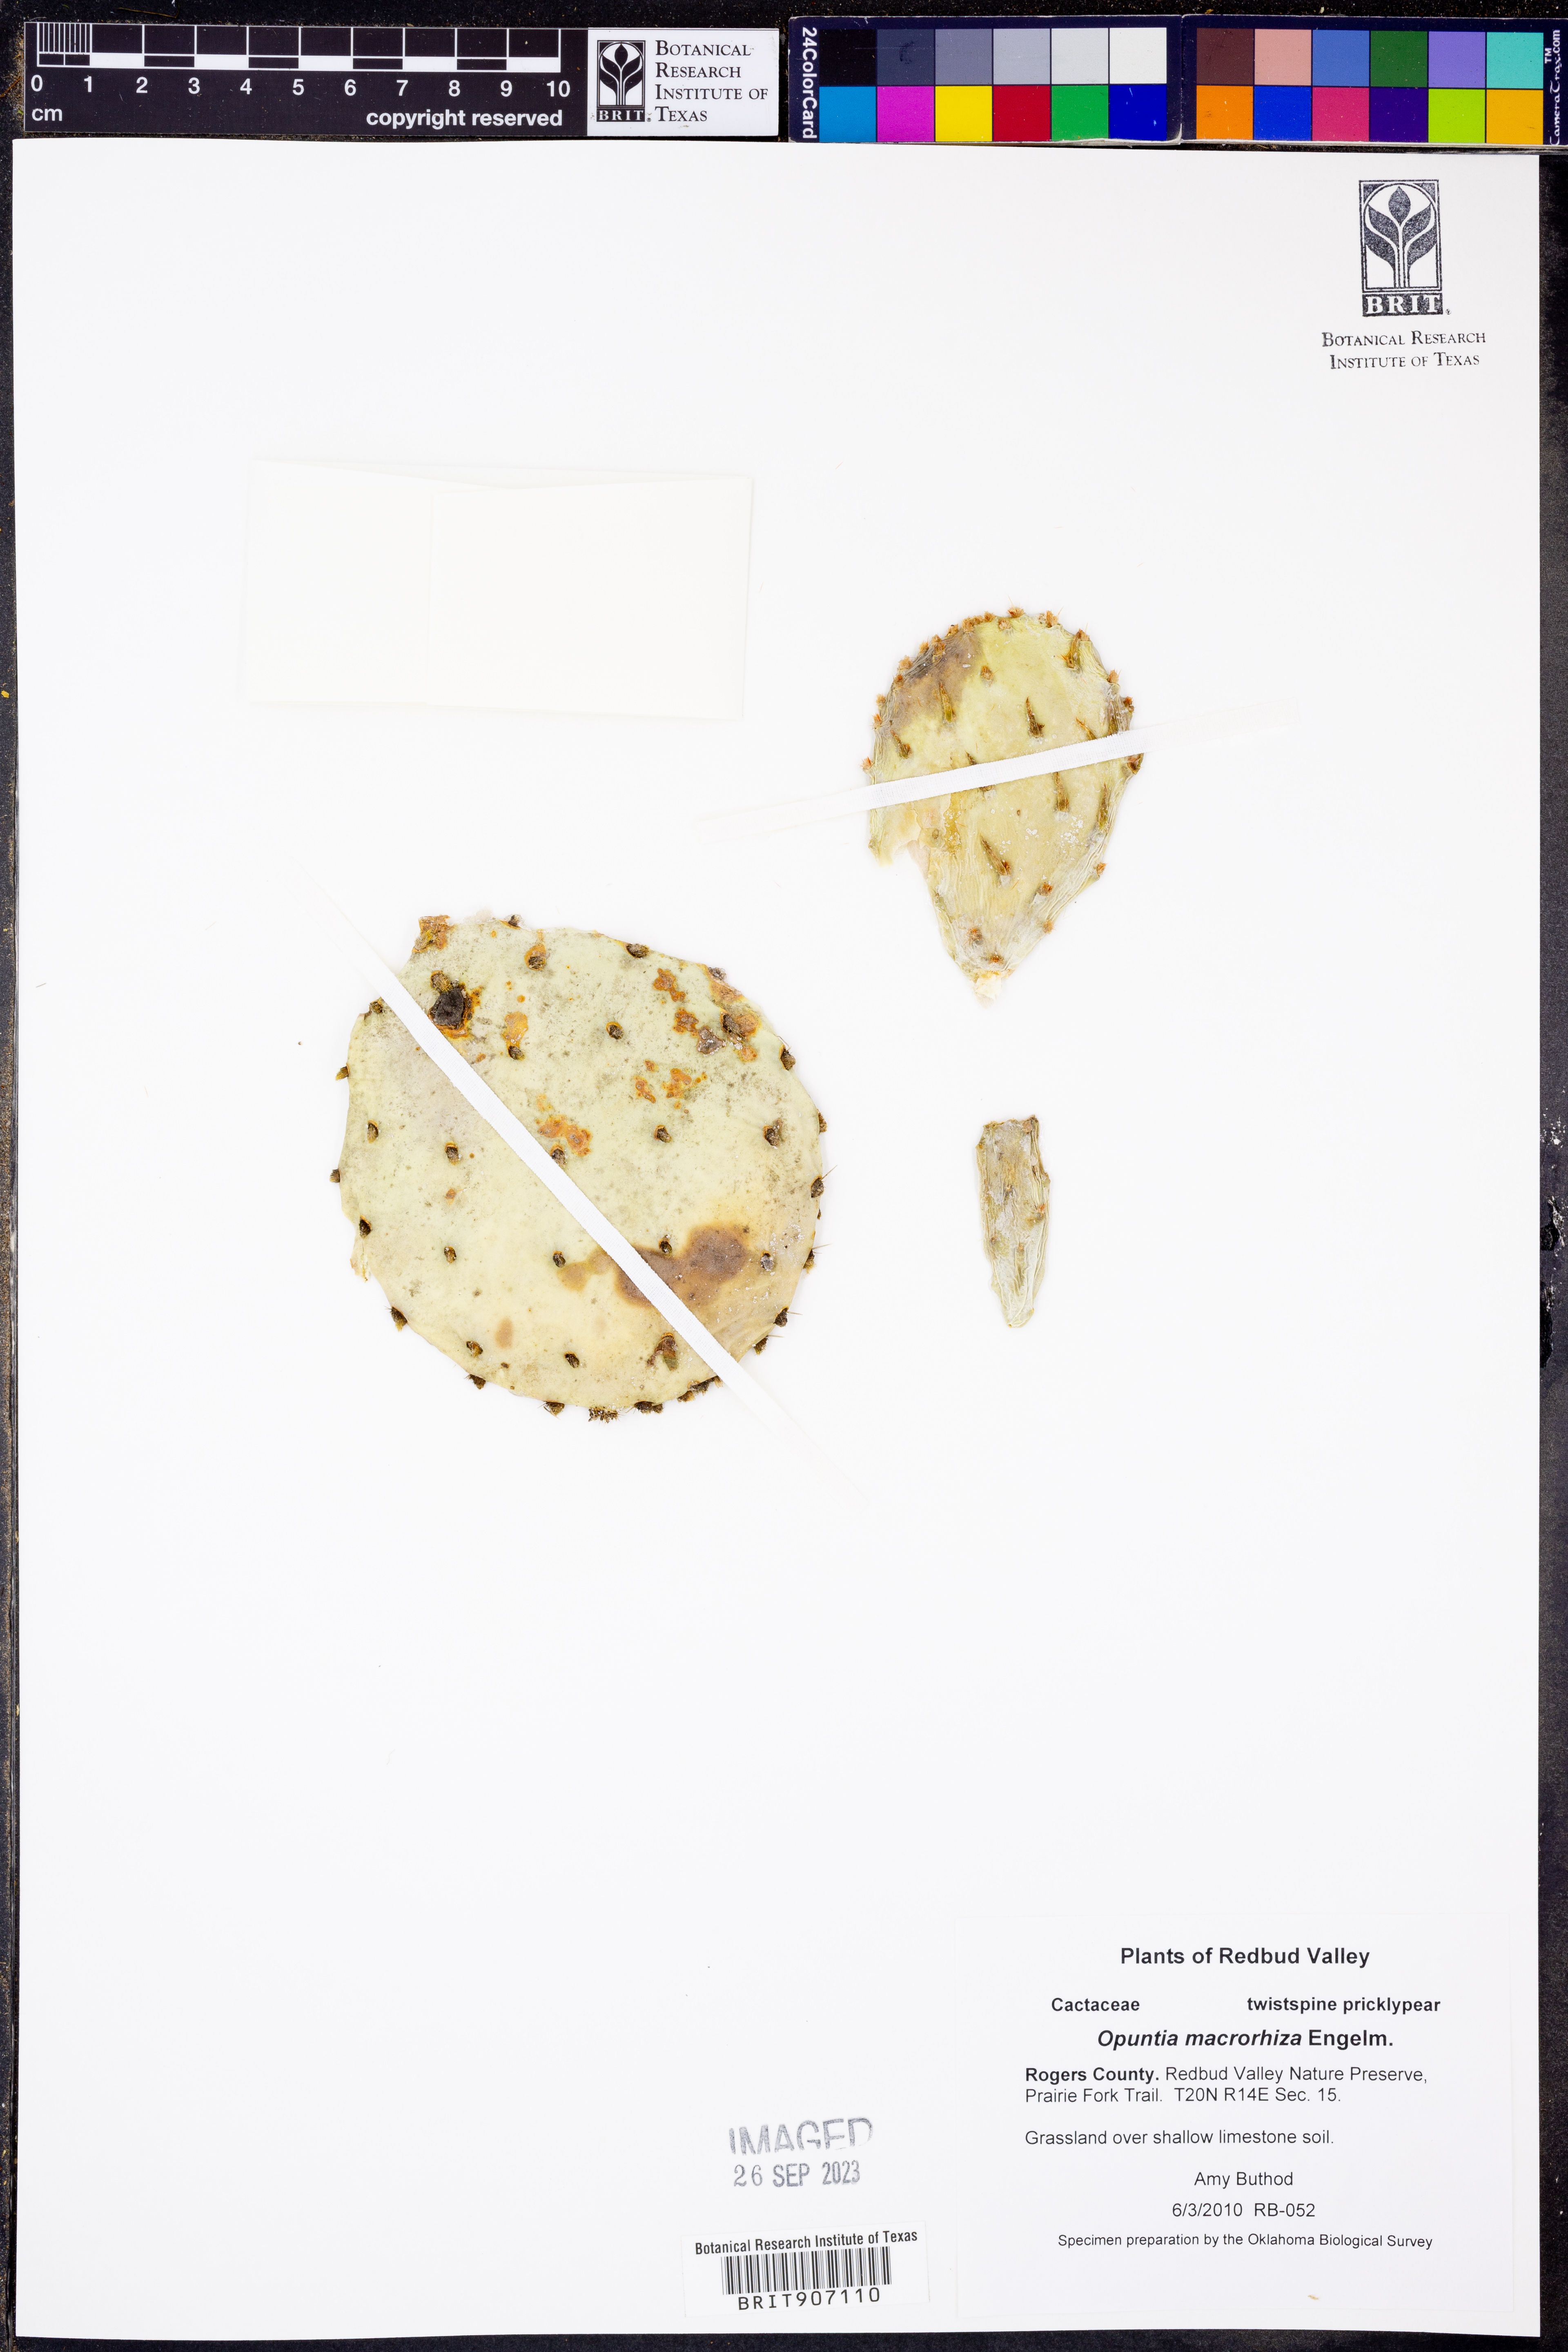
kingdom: Plantae
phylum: Tracheophyta
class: Magnoliopsida
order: Caryophyllales
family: Cactaceae
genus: Opuntia
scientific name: Opuntia macrorhiza
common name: Grassland pricklypear
